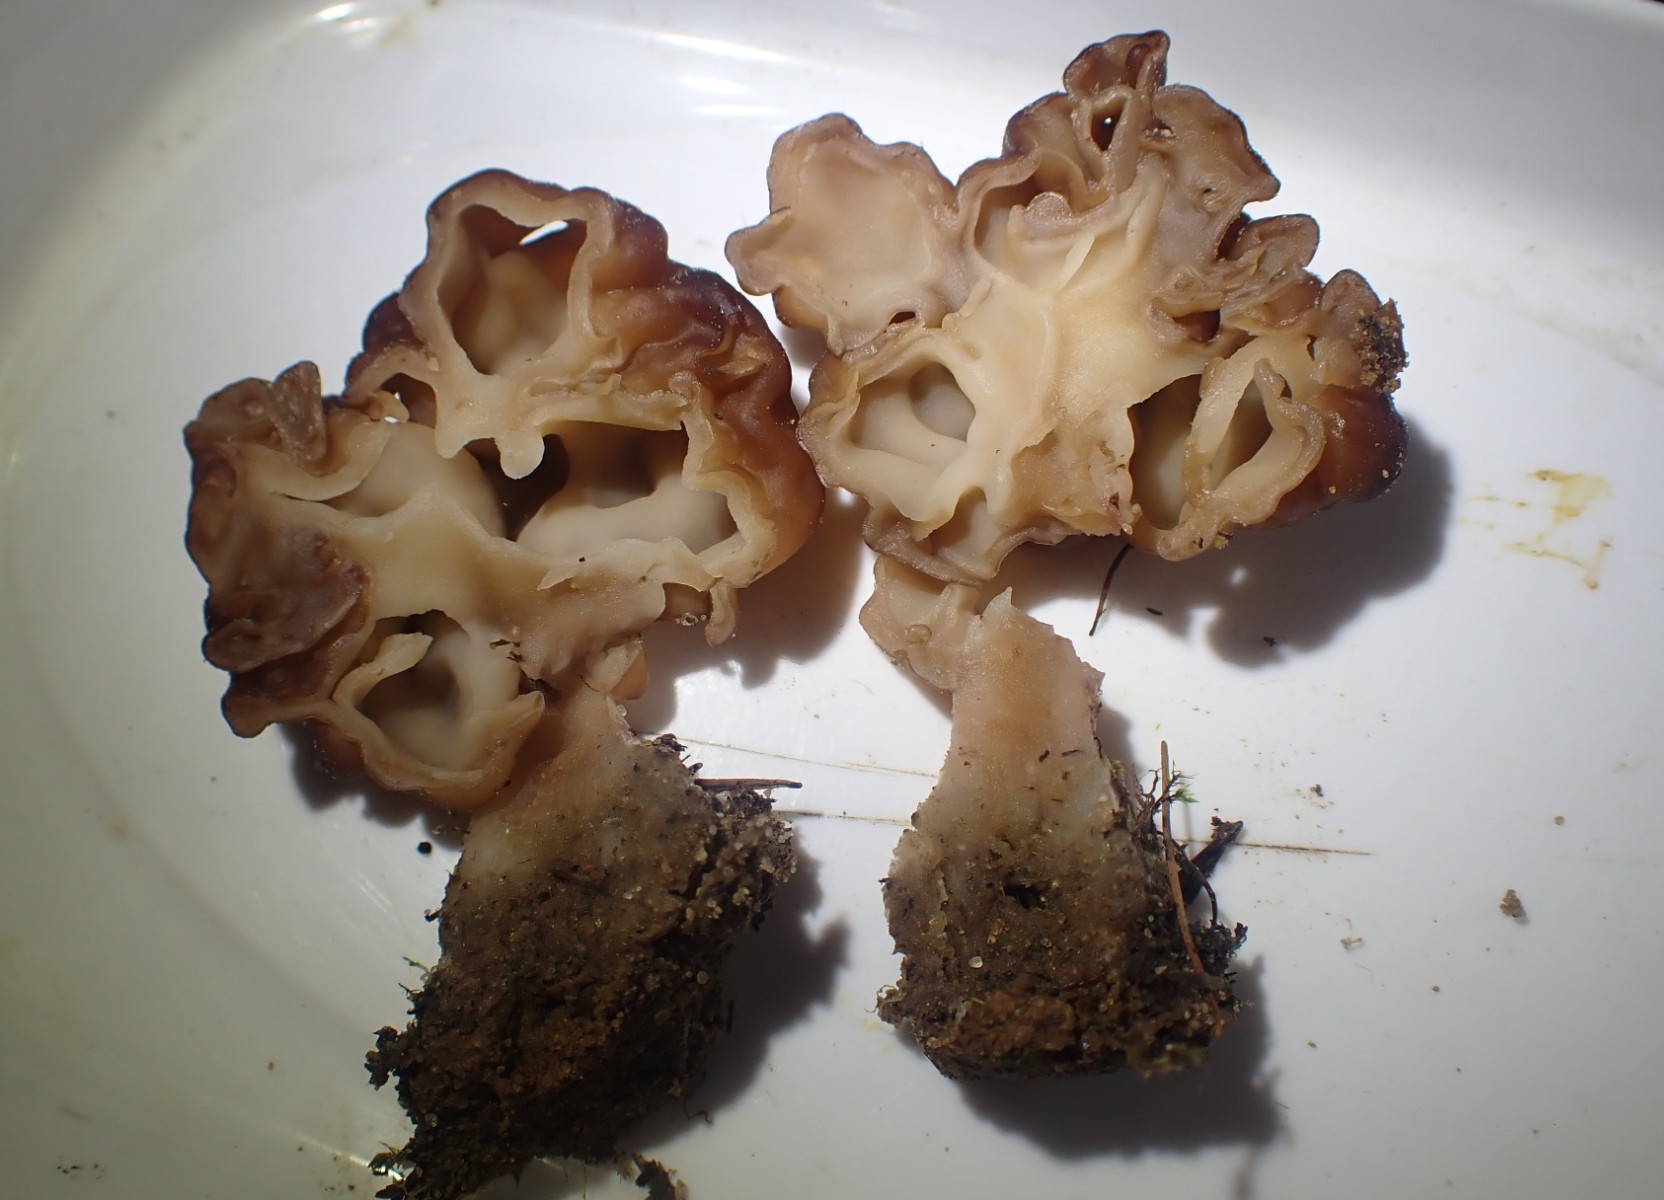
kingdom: Fungi
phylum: Ascomycota
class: Pezizomycetes
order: Pezizales
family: Discinaceae
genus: Gyromitra
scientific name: Gyromitra esculenta
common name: ægte stenmorkel
